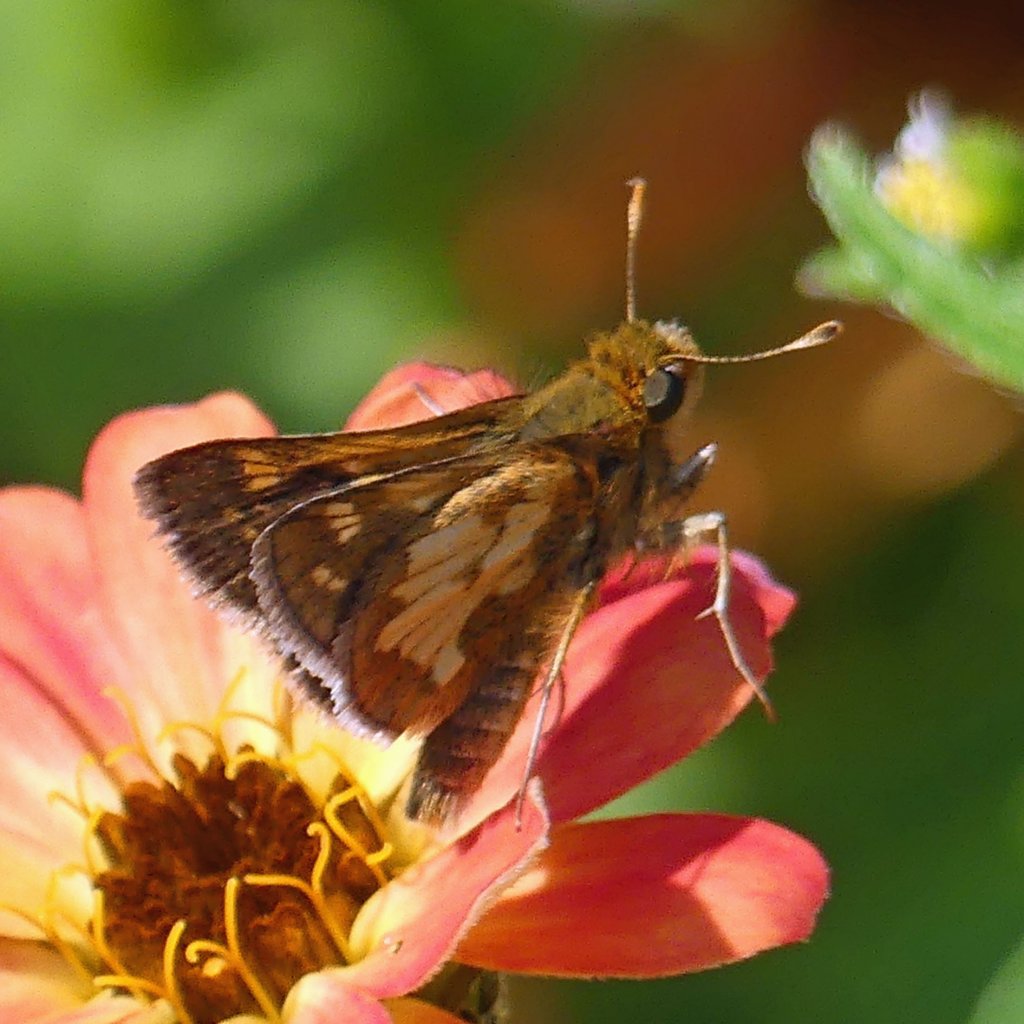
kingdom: Animalia
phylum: Arthropoda
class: Insecta
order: Lepidoptera
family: Hesperiidae
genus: Polites
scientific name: Polites coras
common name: Peck's Skipper
